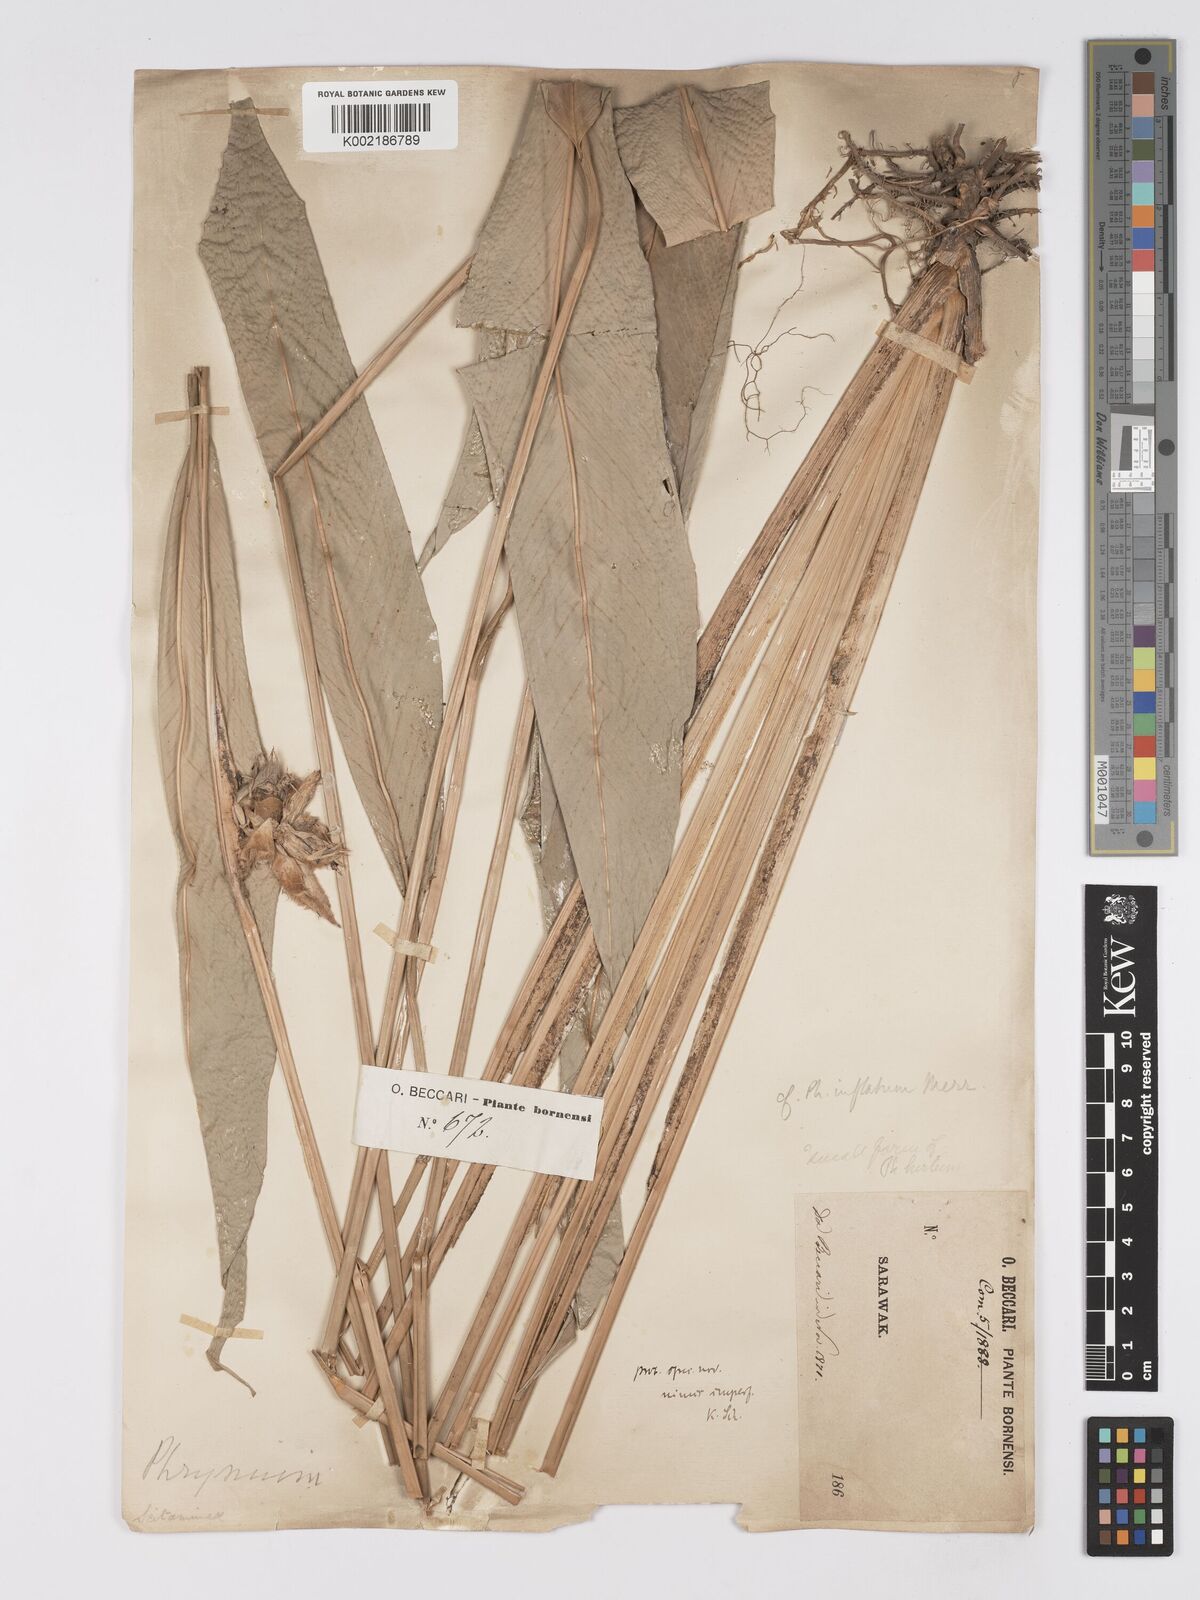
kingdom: Plantae
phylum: Tracheophyta
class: Liliopsida
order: Zingiberales
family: Marantaceae
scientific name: Marantaceae
